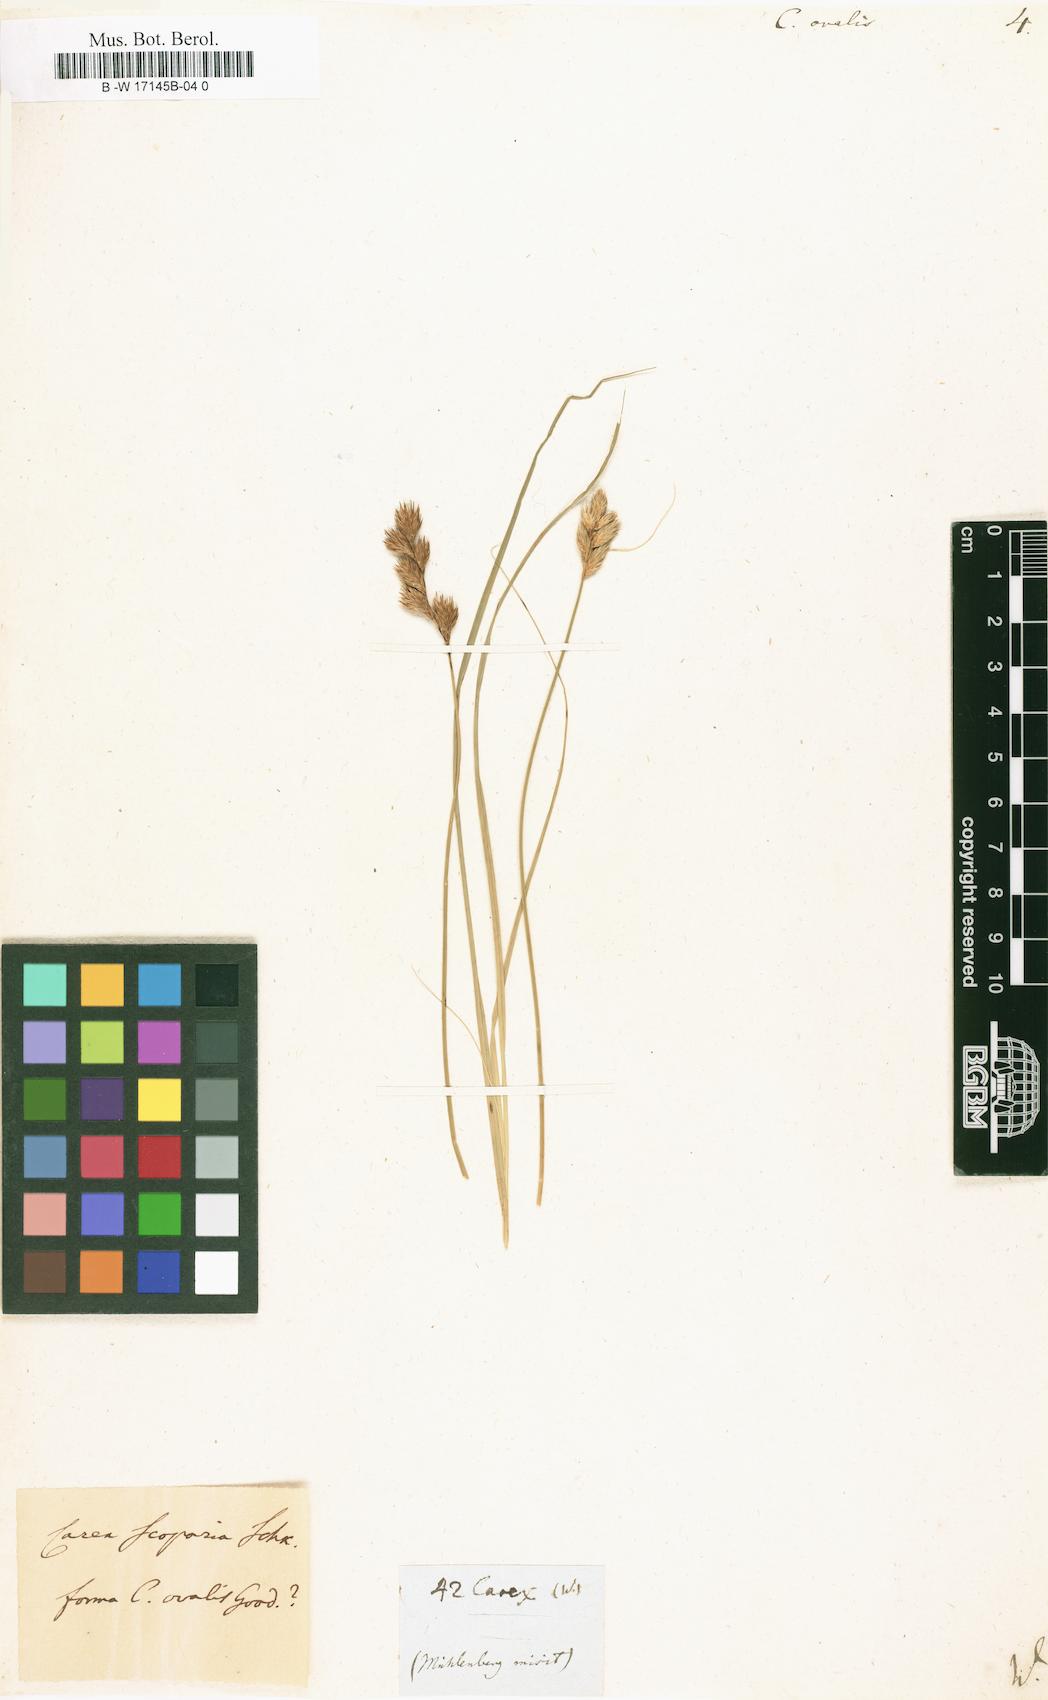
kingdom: Plantae
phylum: Tracheophyta
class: Liliopsida
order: Poales
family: Cyperaceae
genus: Carex
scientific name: Carex
